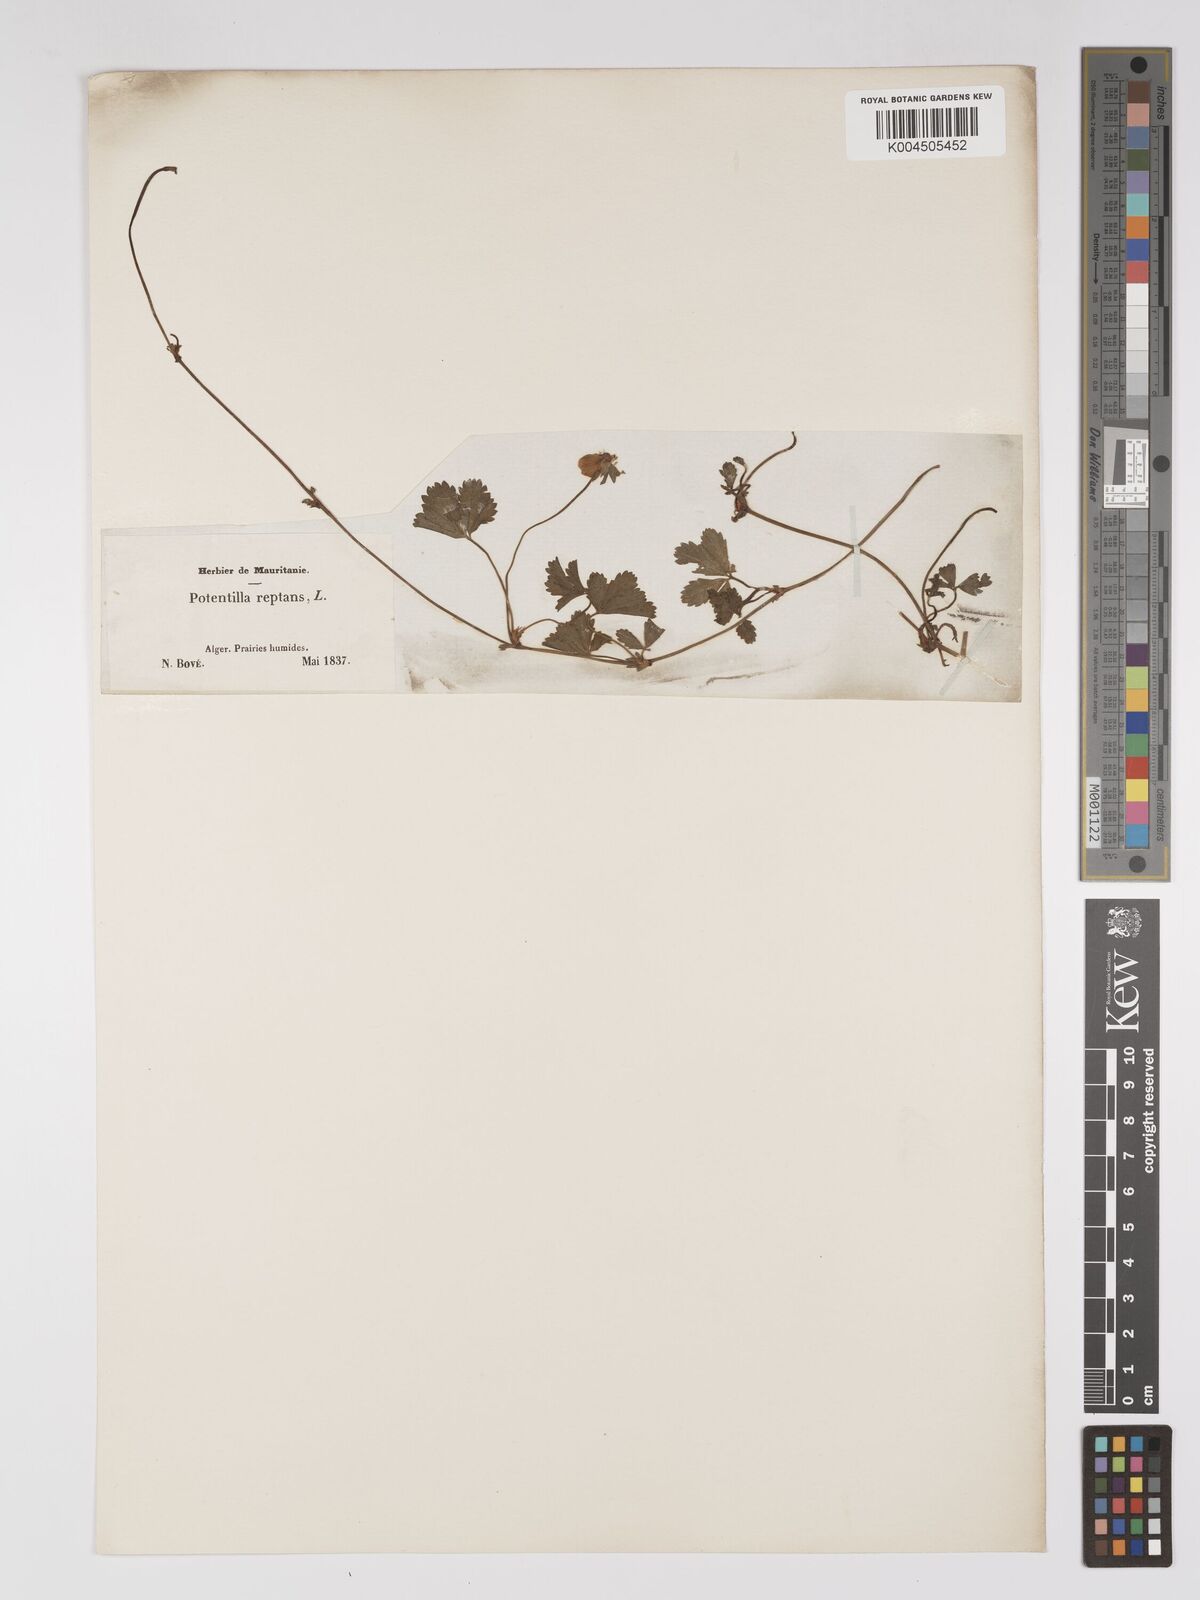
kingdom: Plantae
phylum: Tracheophyta
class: Magnoliopsida
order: Rosales
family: Rosaceae
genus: Potentilla
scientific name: Potentilla reptans
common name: Creeping cinquefoil
